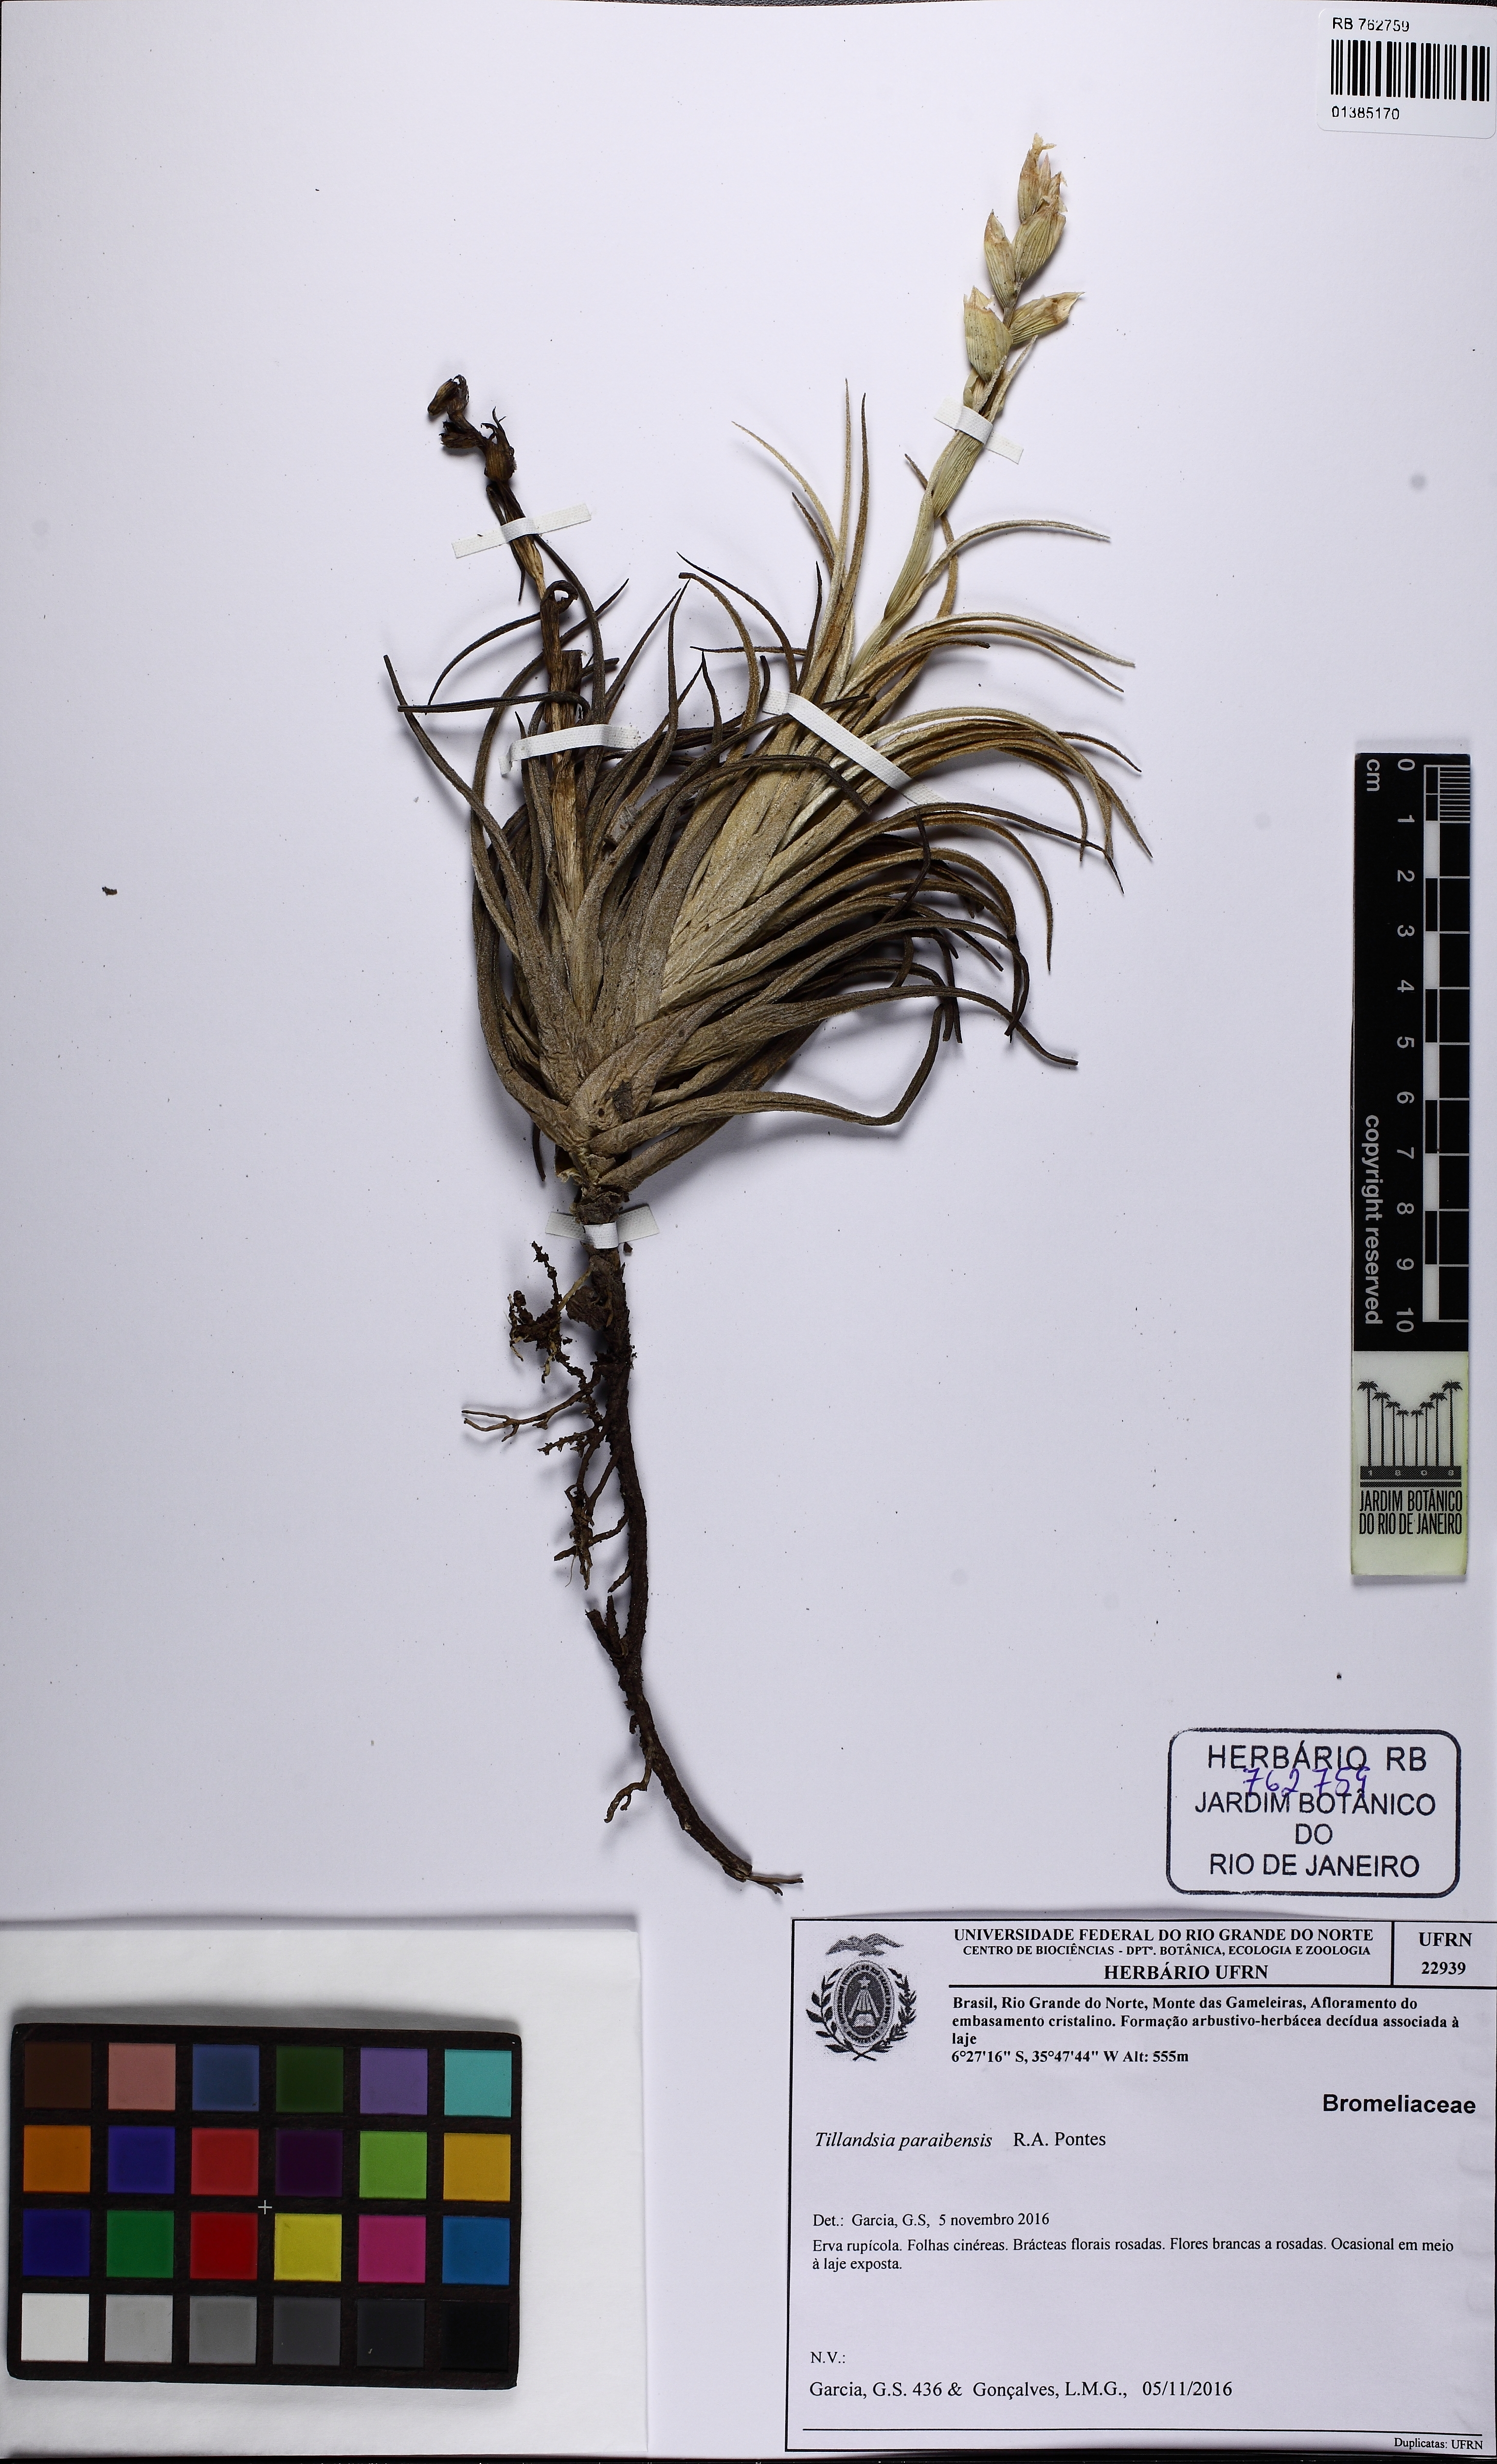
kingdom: Plantae
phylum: Tracheophyta
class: Liliopsida
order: Poales
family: Bromeliaceae
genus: Tillandsia
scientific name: Tillandsia paraibensis
